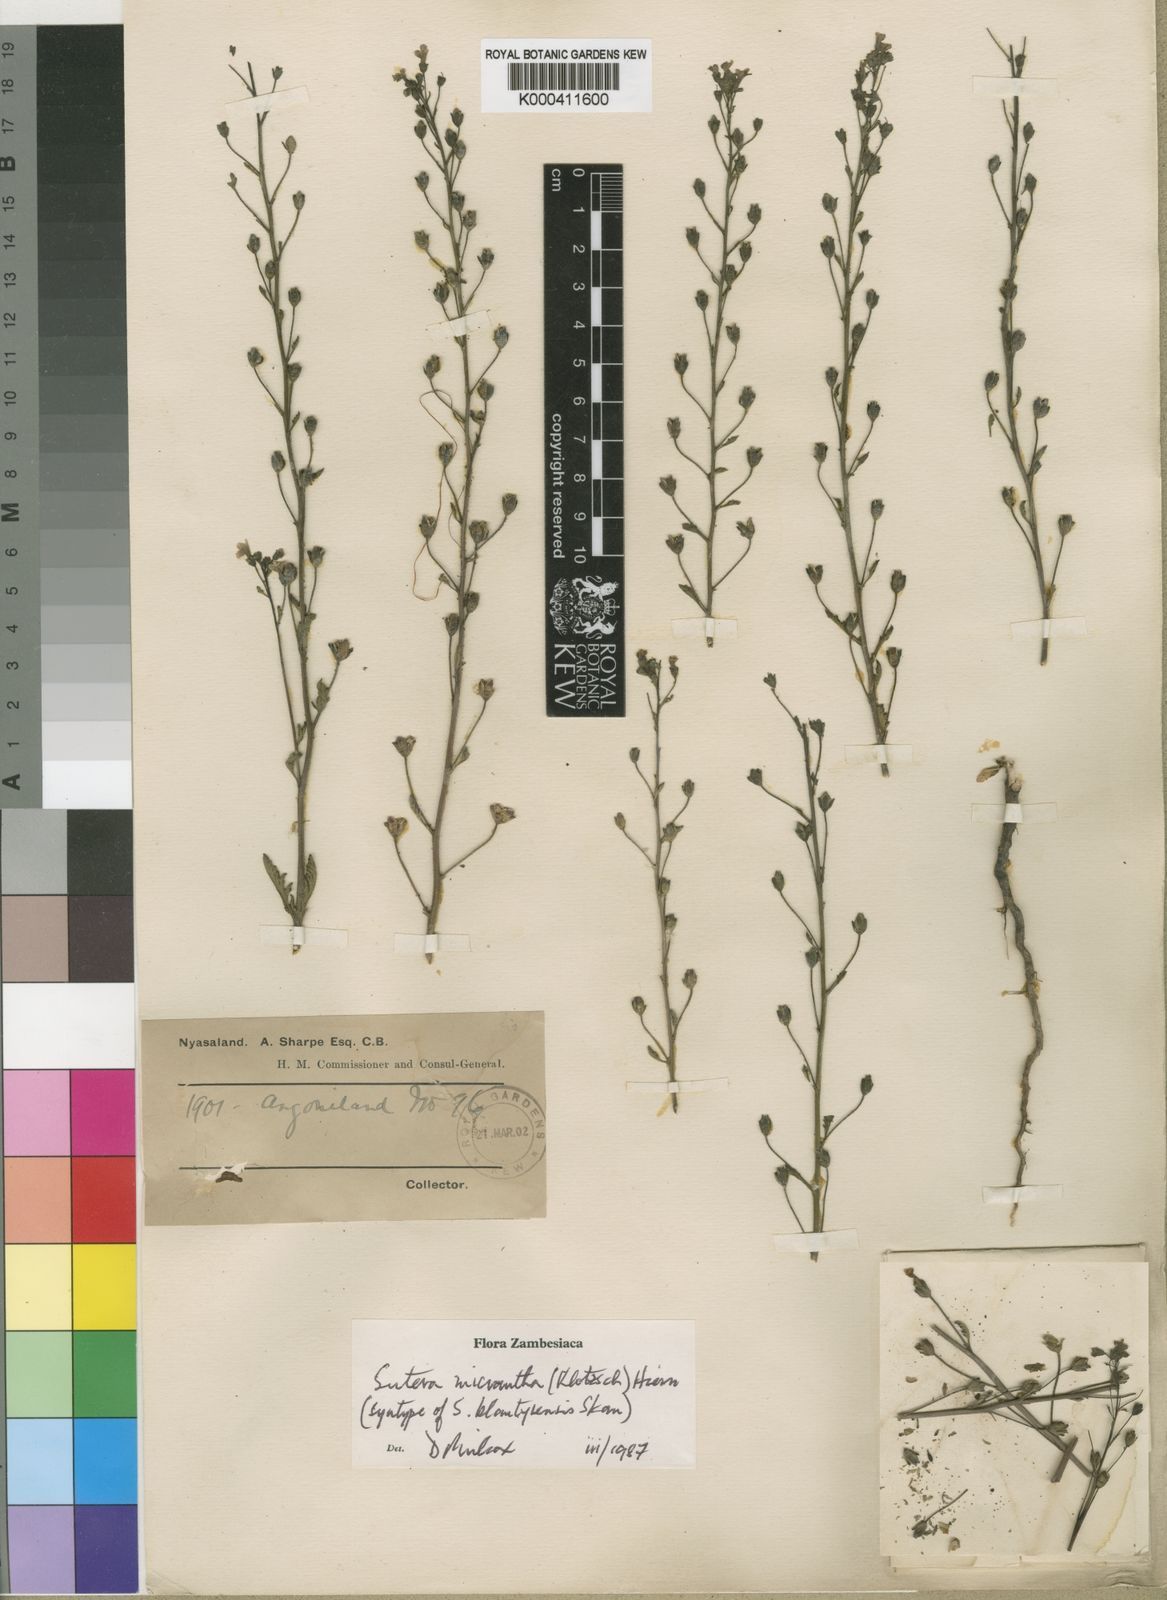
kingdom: Plantae
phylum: Tracheophyta
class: Magnoliopsida
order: Lamiales
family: Scrophulariaceae
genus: Jamesbrittenia
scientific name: Jamesbrittenia micrantha
